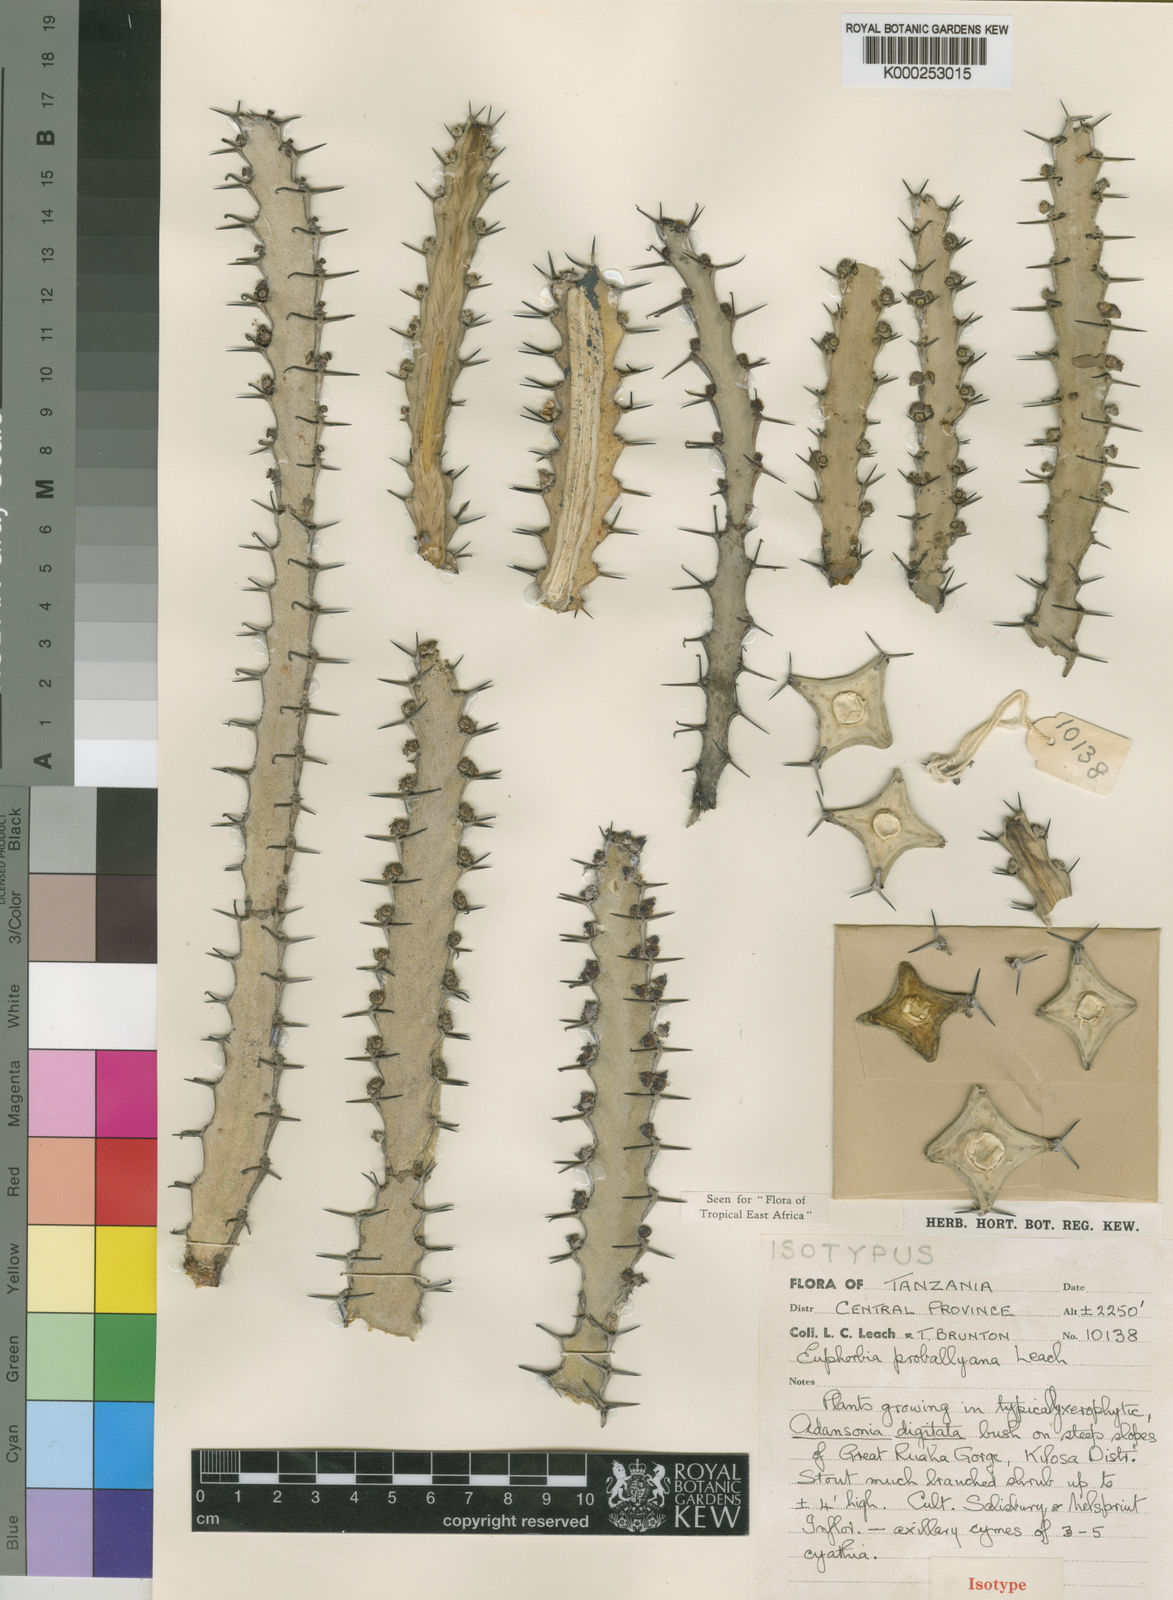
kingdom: Plantae
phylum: Tracheophyta
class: Magnoliopsida
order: Malpighiales
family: Euphorbiaceae
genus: Euphorbia
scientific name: Euphorbia proballyana
